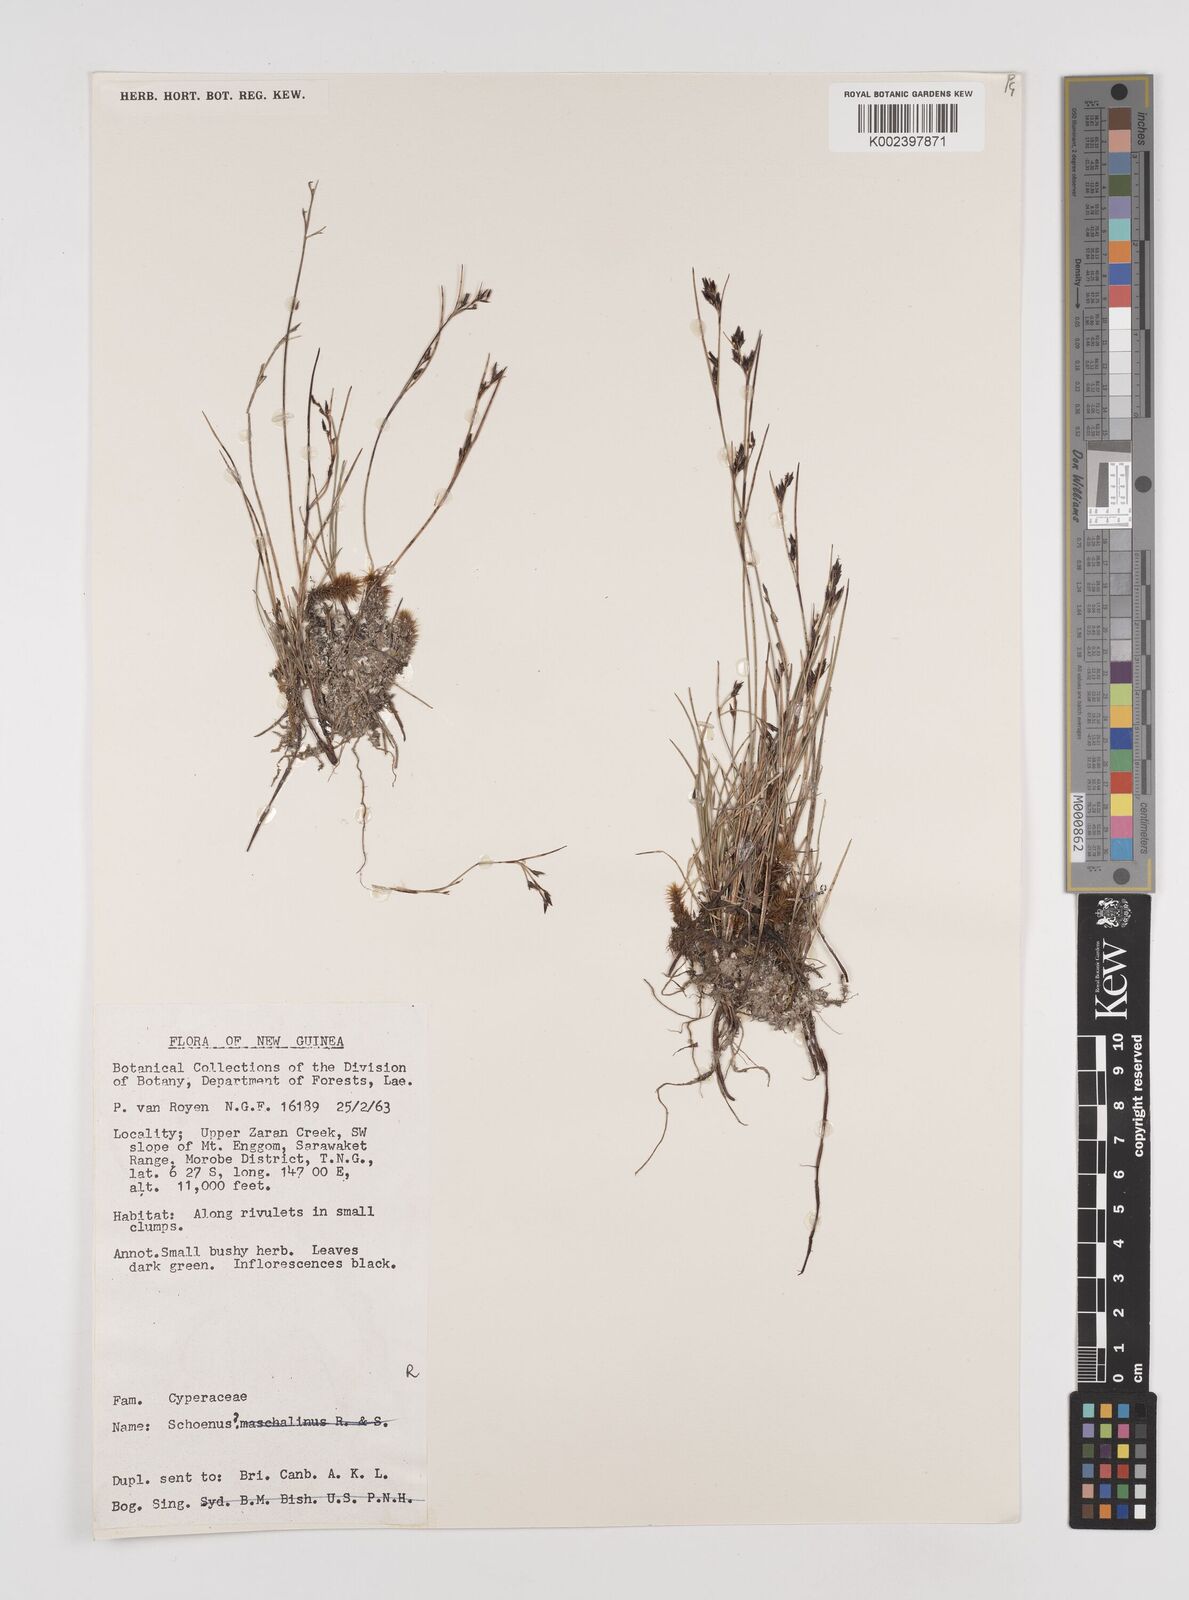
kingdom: Plantae
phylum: Tracheophyta
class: Liliopsida
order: Poales
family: Cyperaceae
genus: Schoenus
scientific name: Schoenus curvulus
